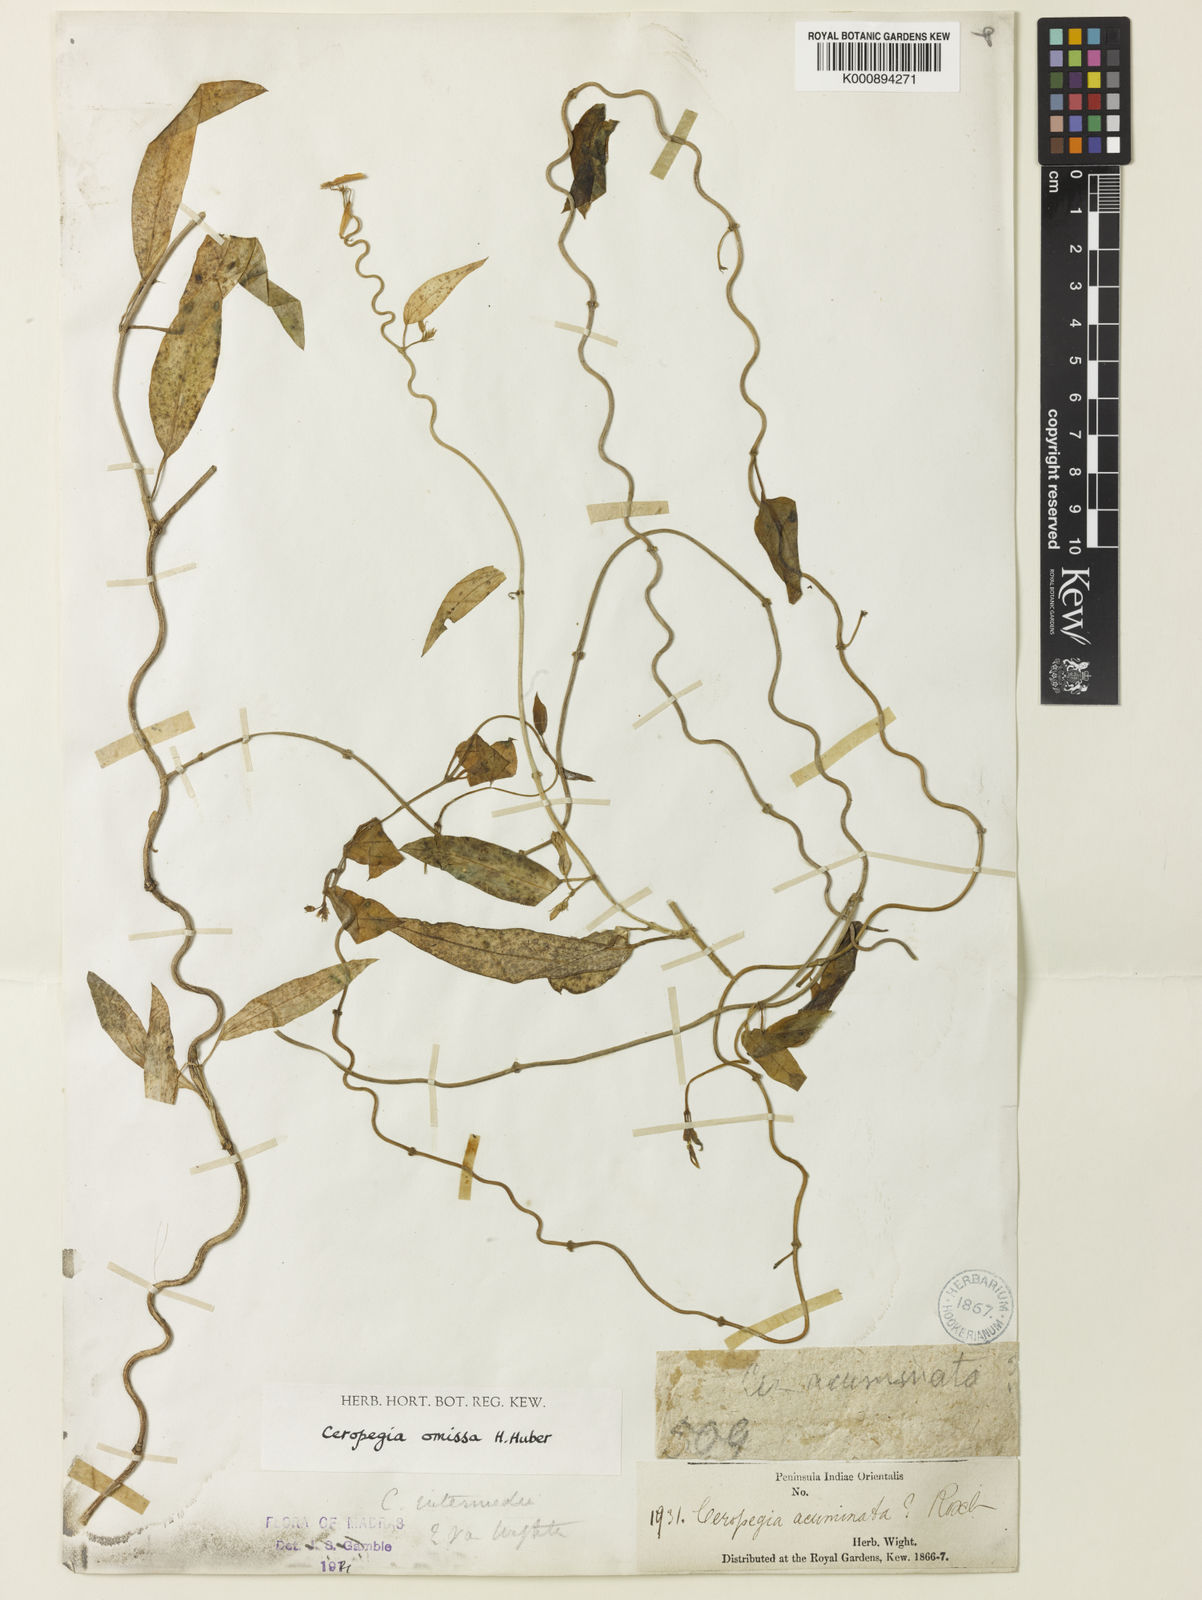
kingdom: Plantae
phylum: Tracheophyta
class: Magnoliopsida
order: Gentianales
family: Apocynaceae
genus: Ceropegia
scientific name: Ceropegia omissa
